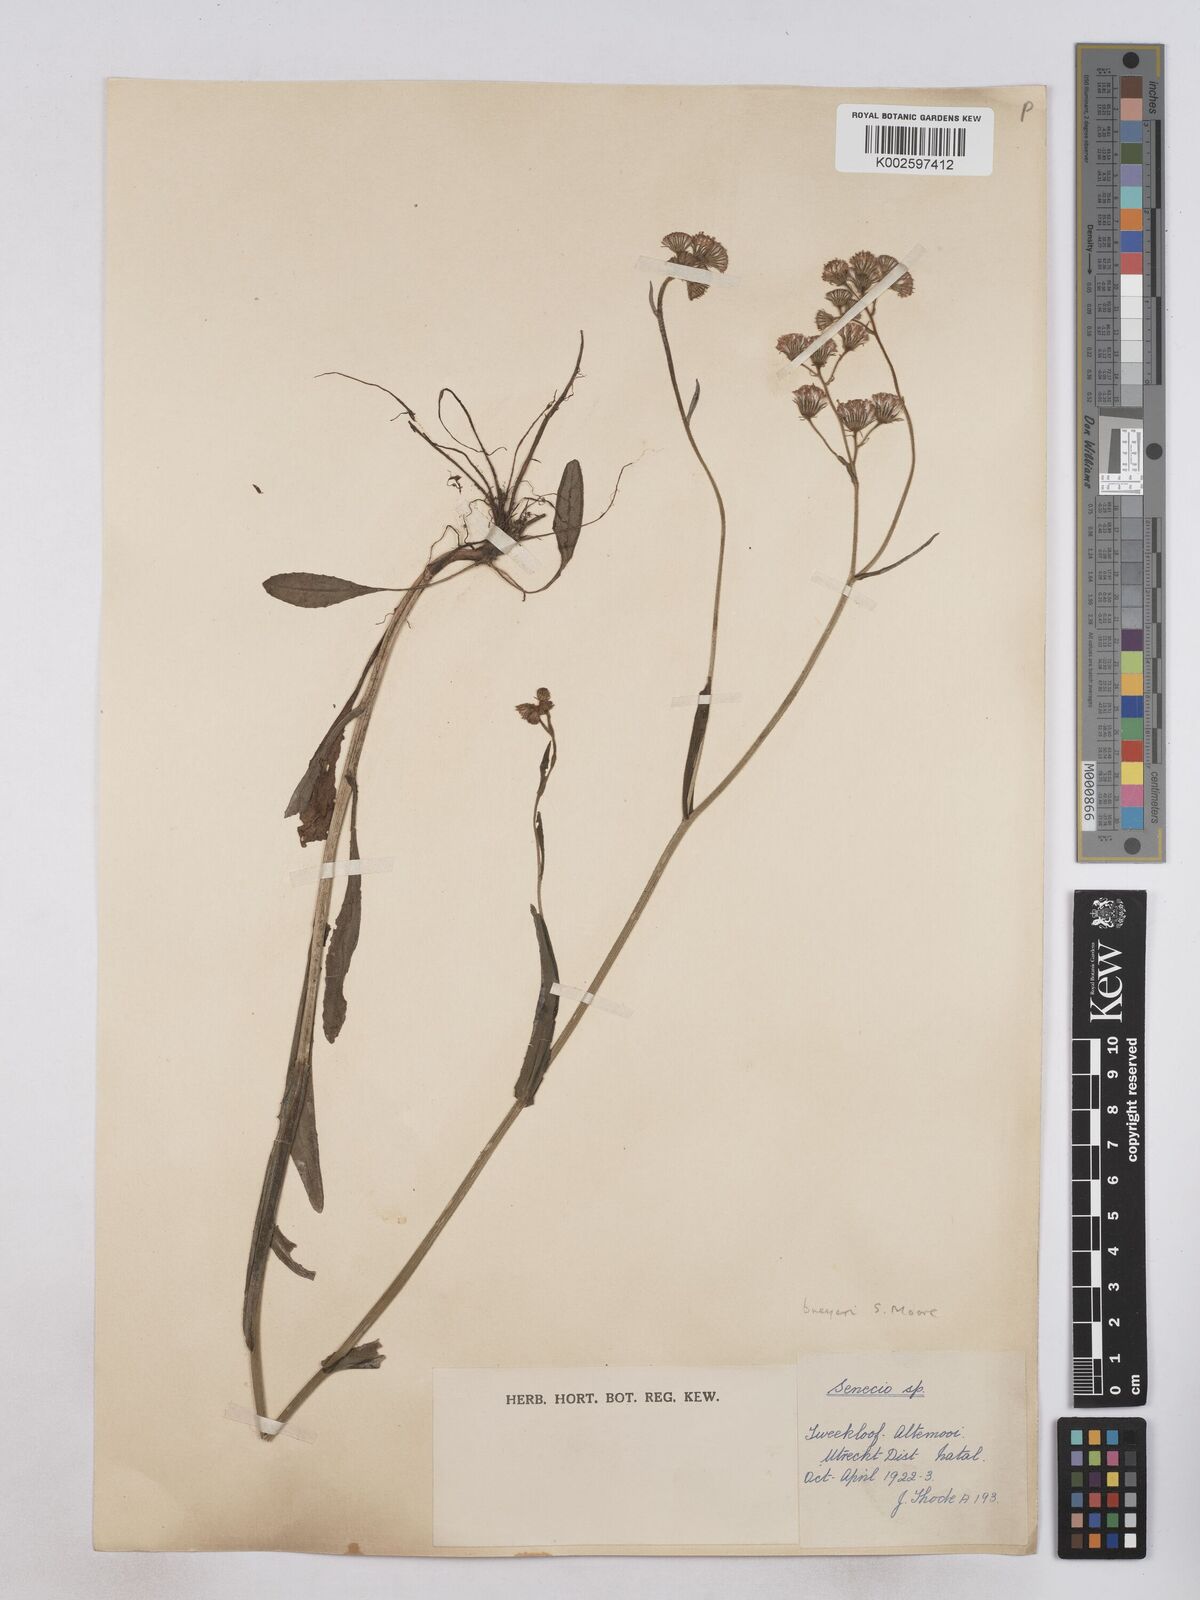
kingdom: Plantae
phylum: Tracheophyta
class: Magnoliopsida
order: Asterales
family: Asteraceae
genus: Senecio
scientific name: Senecio polyodon
